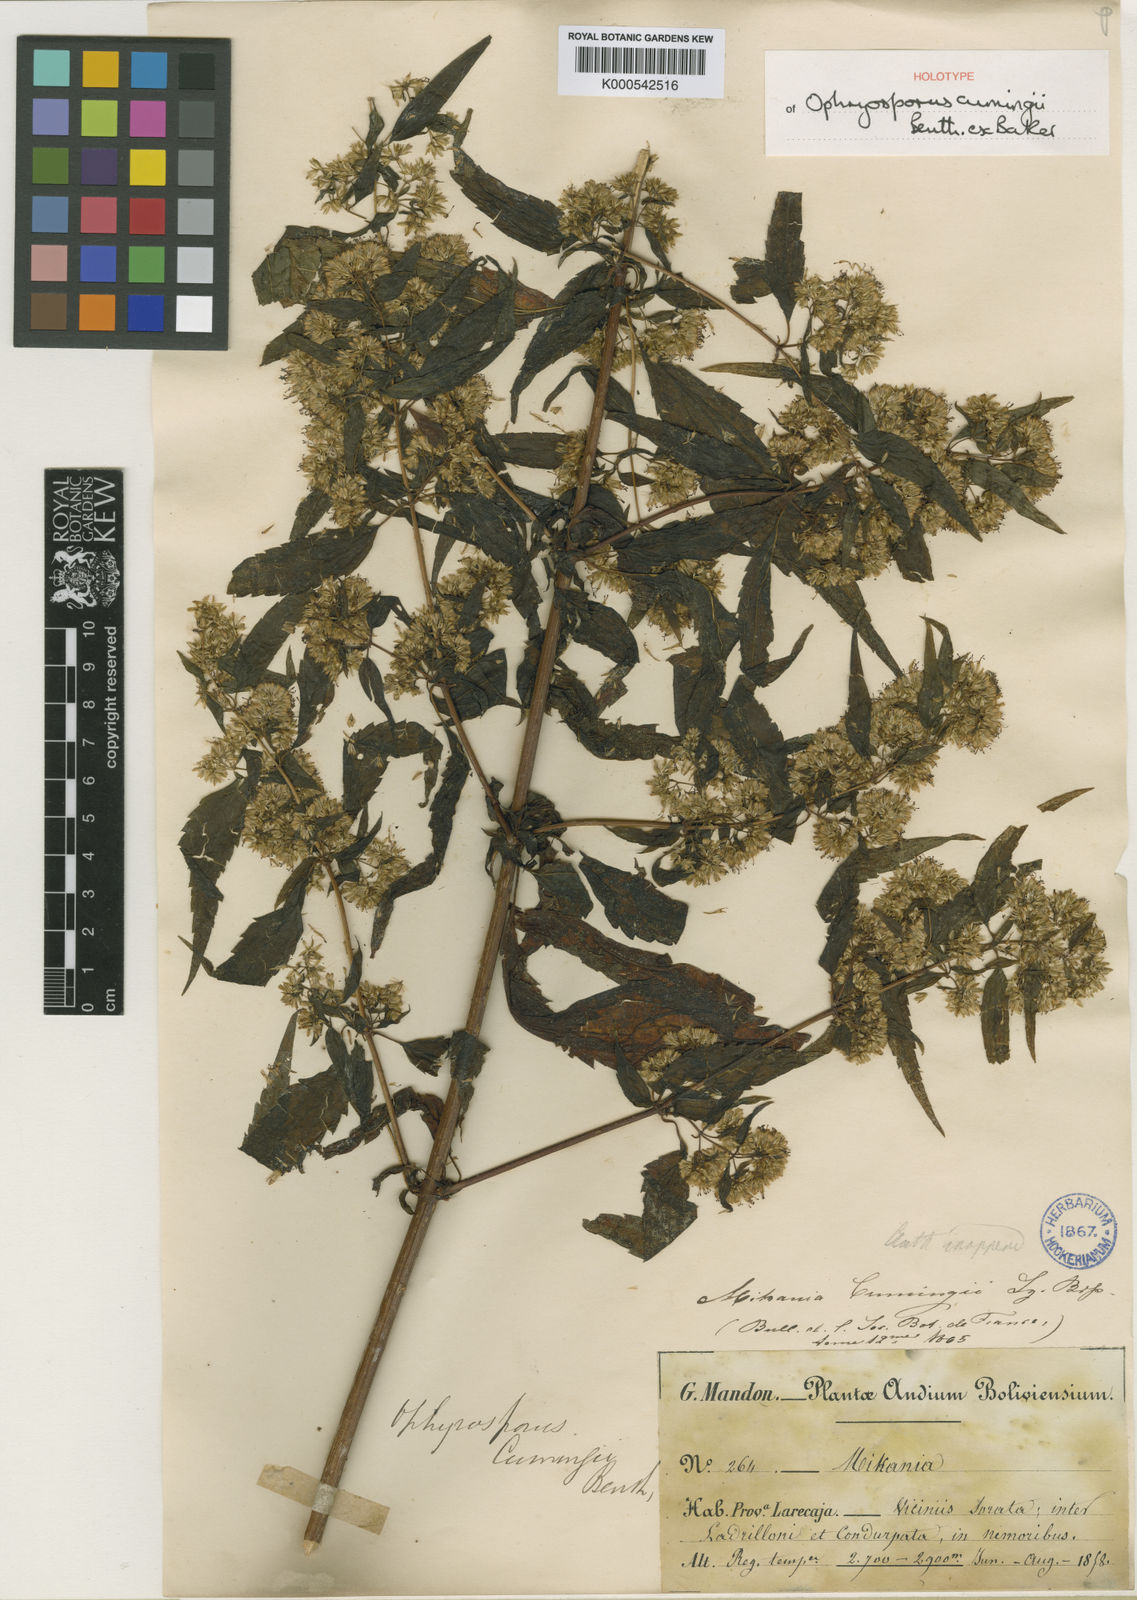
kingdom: Plantae
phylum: Tracheophyta
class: Magnoliopsida
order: Asterales
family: Asteraceae
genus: Ophryosporus
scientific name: Ophryosporus cumingii
